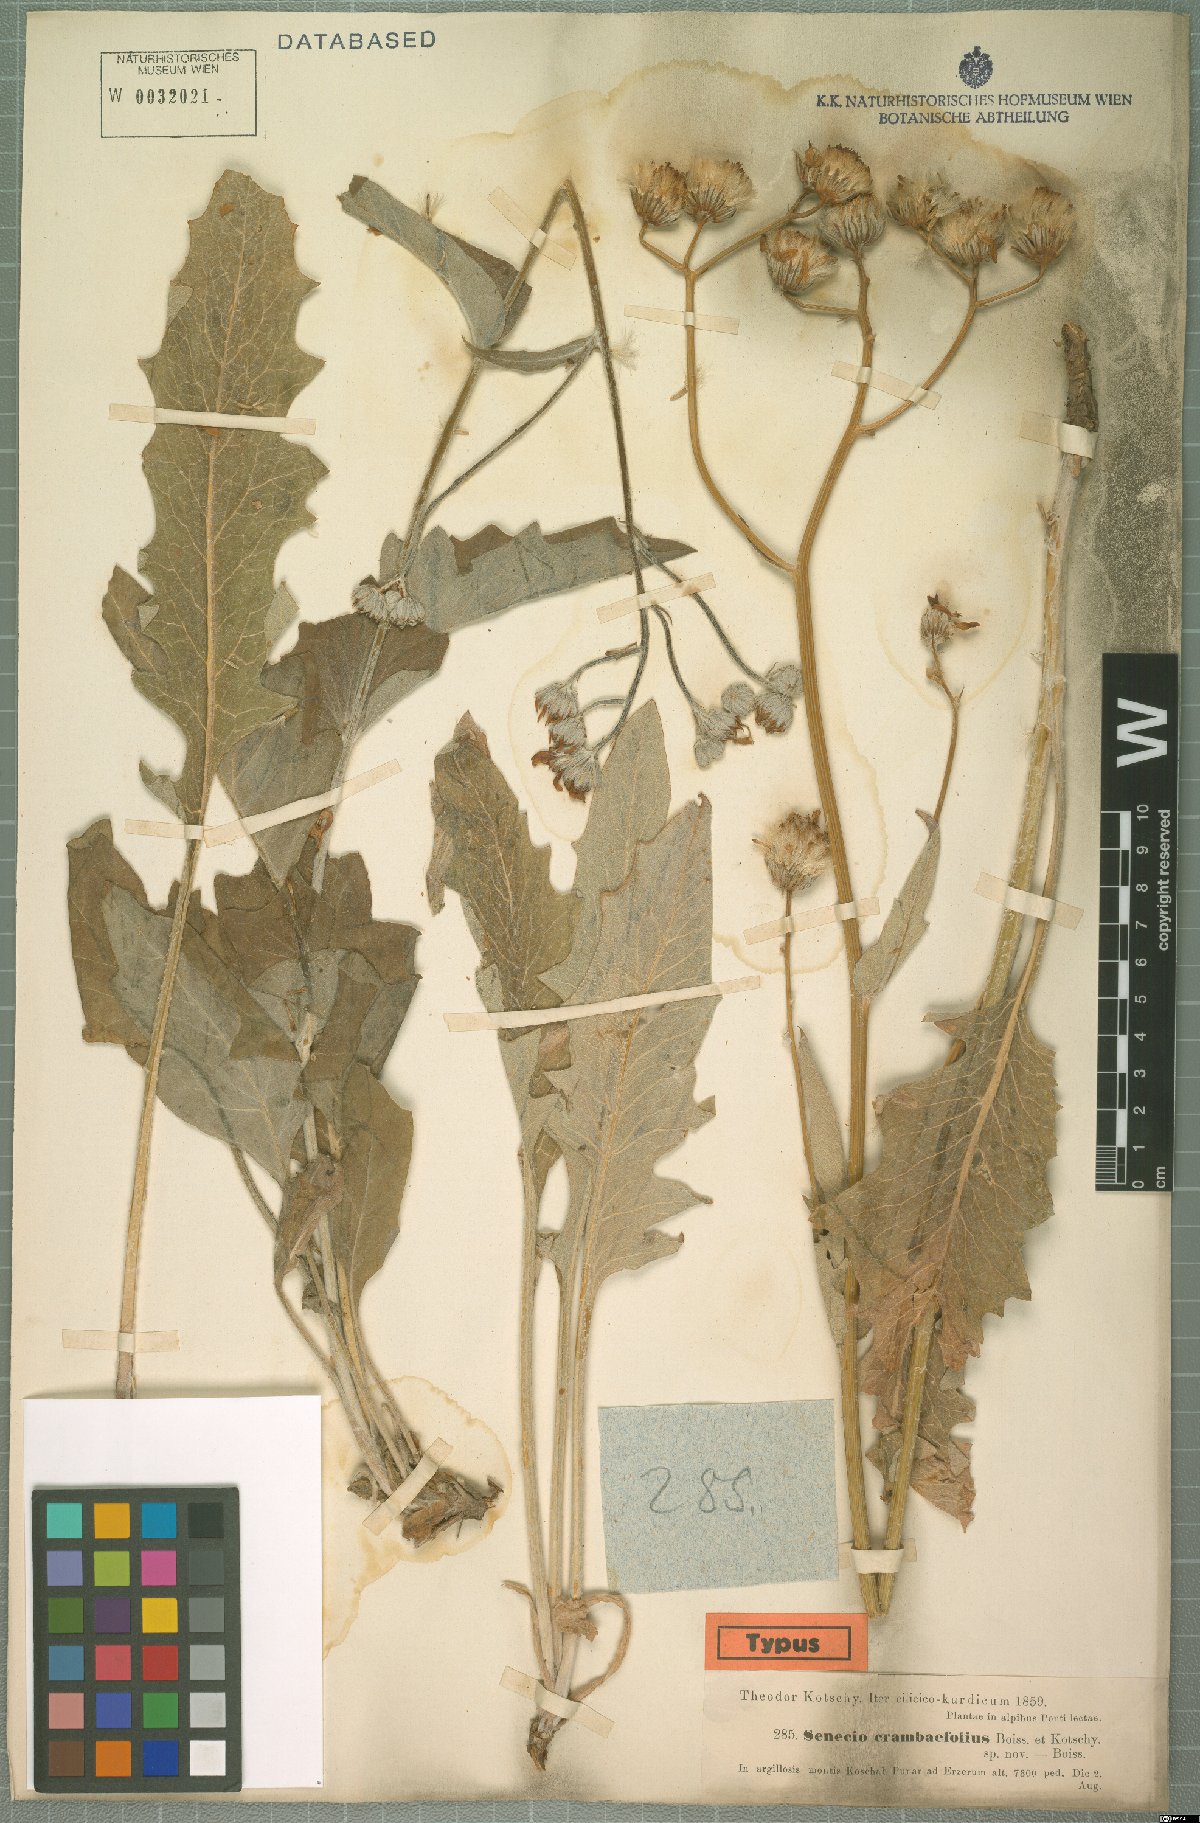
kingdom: Plantae
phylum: Tracheophyta
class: Magnoliopsida
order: Asterales
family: Asteraceae
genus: Turanecio
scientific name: Turanecio eriospermus
